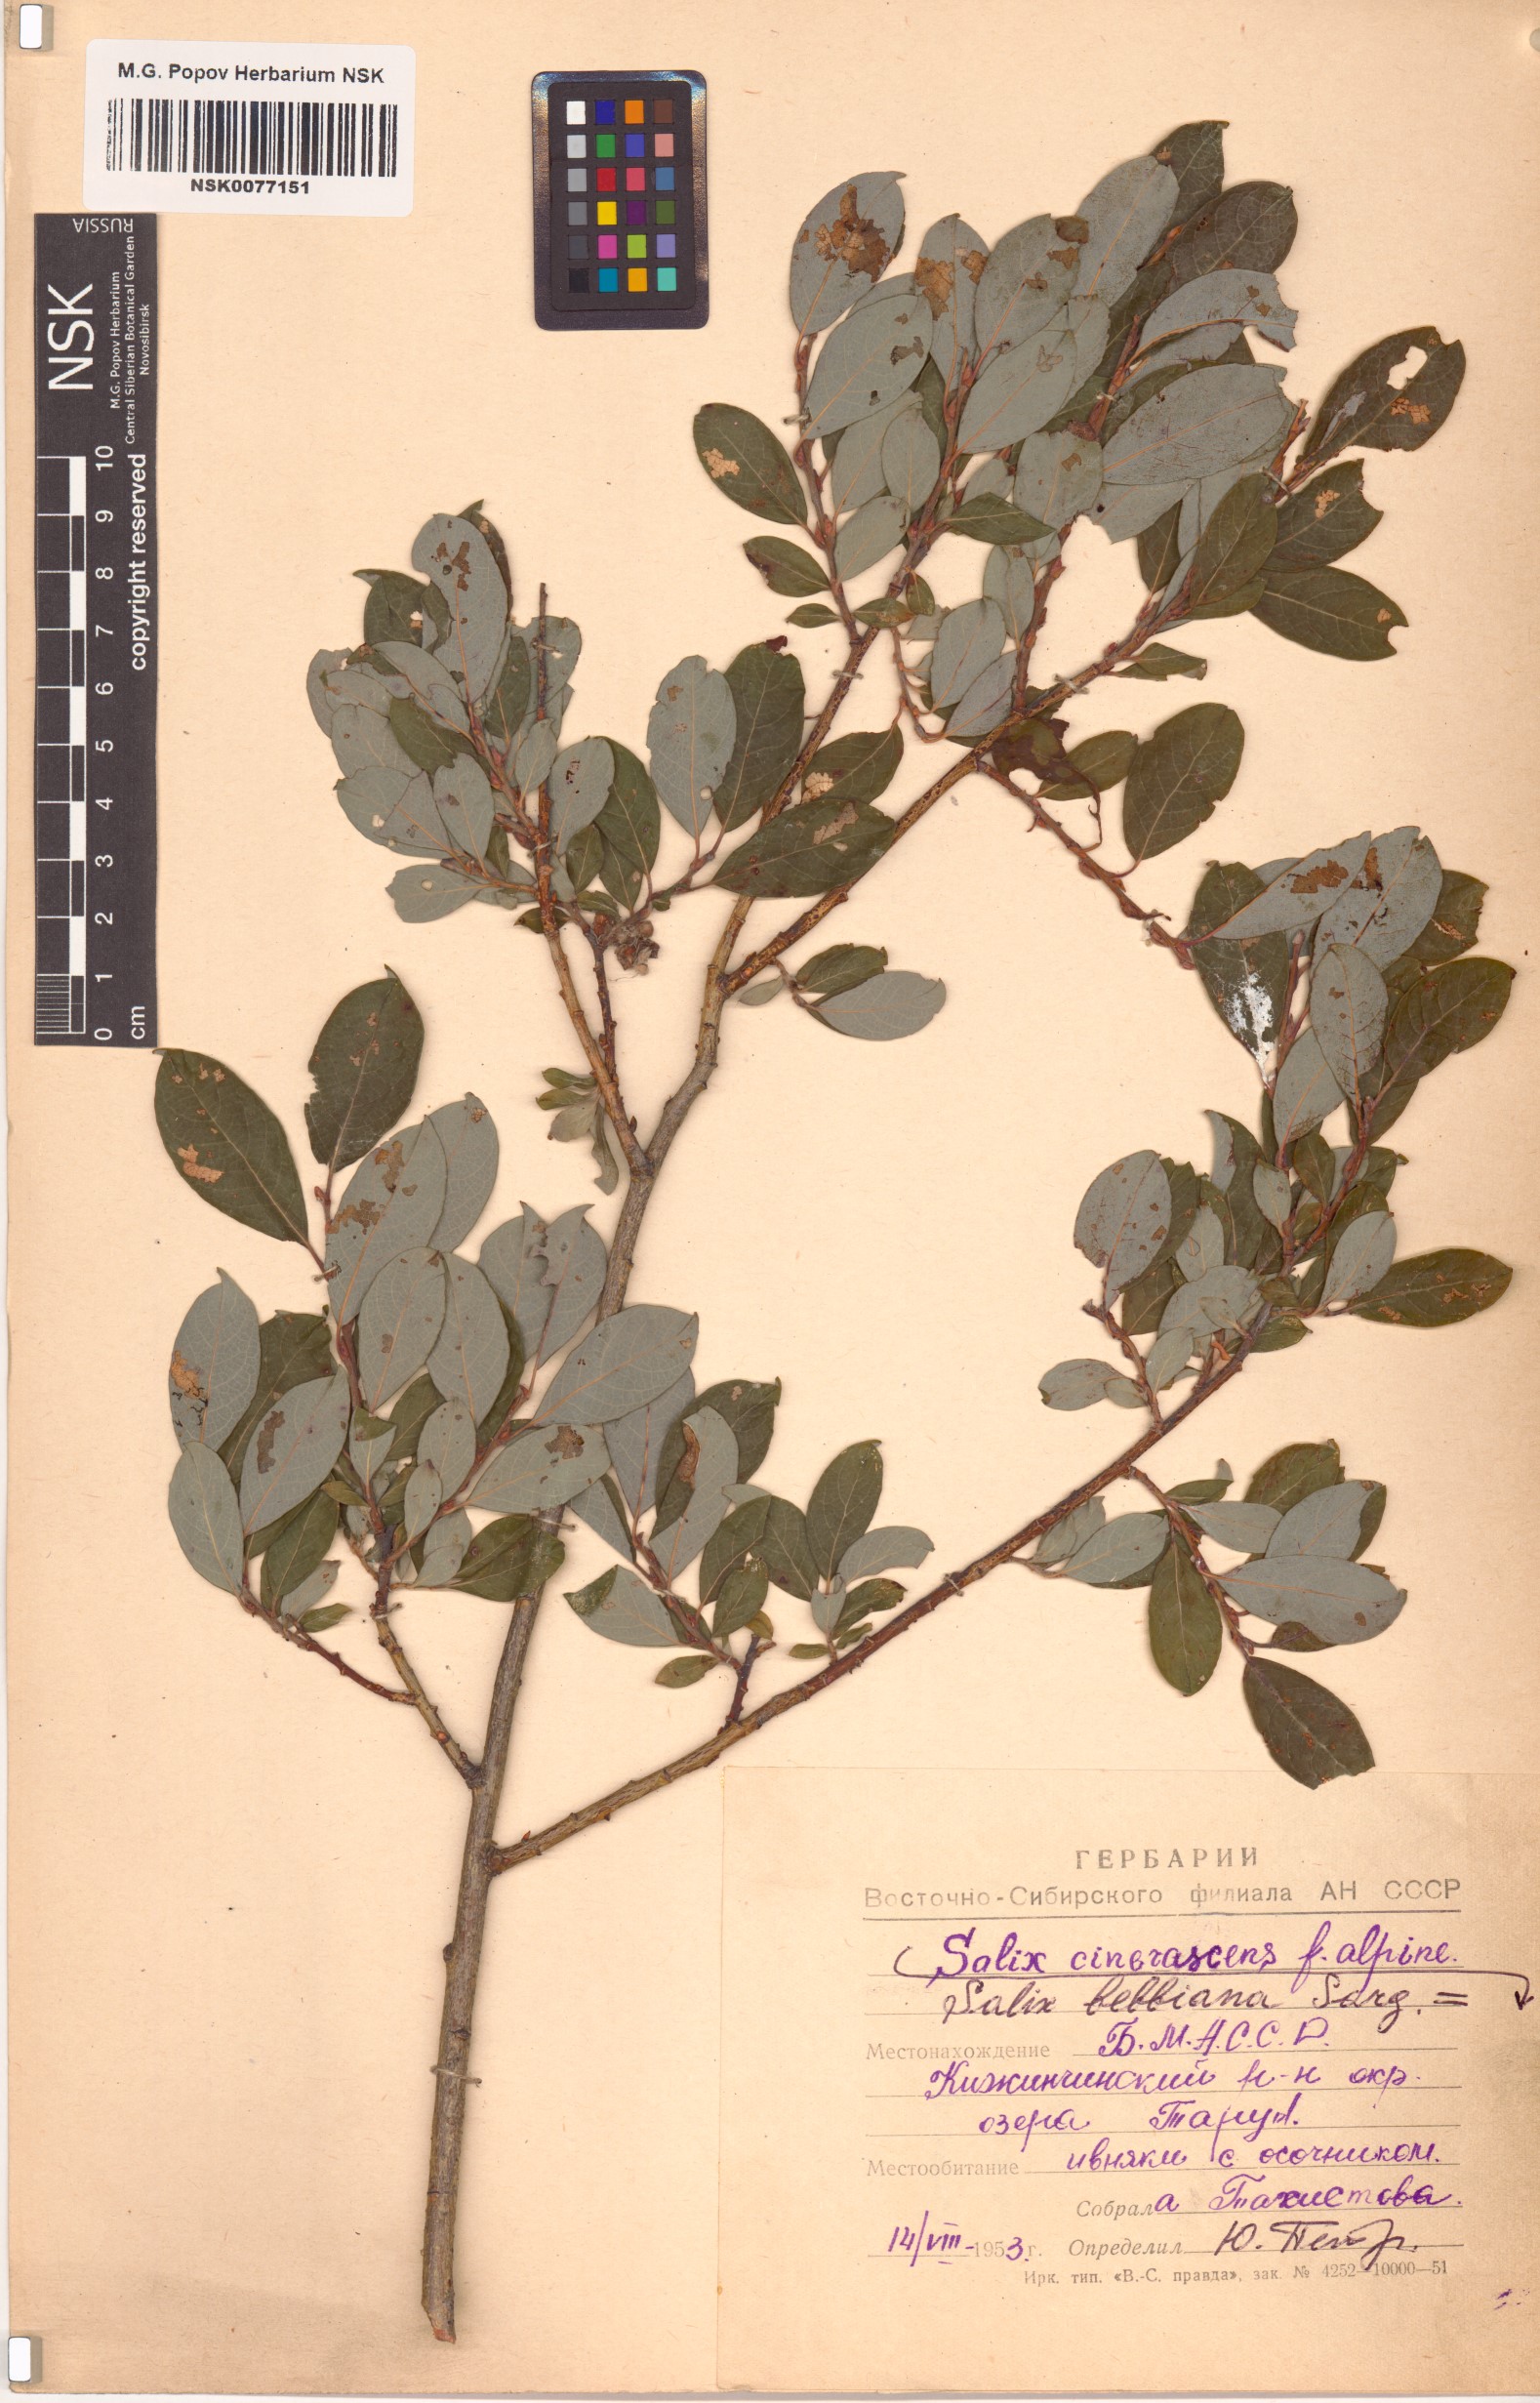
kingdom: Plantae
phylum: Tracheophyta
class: Magnoliopsida
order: Malpighiales
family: Salicaceae
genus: Salix
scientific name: Salix bebbiana
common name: Bebb's willow
